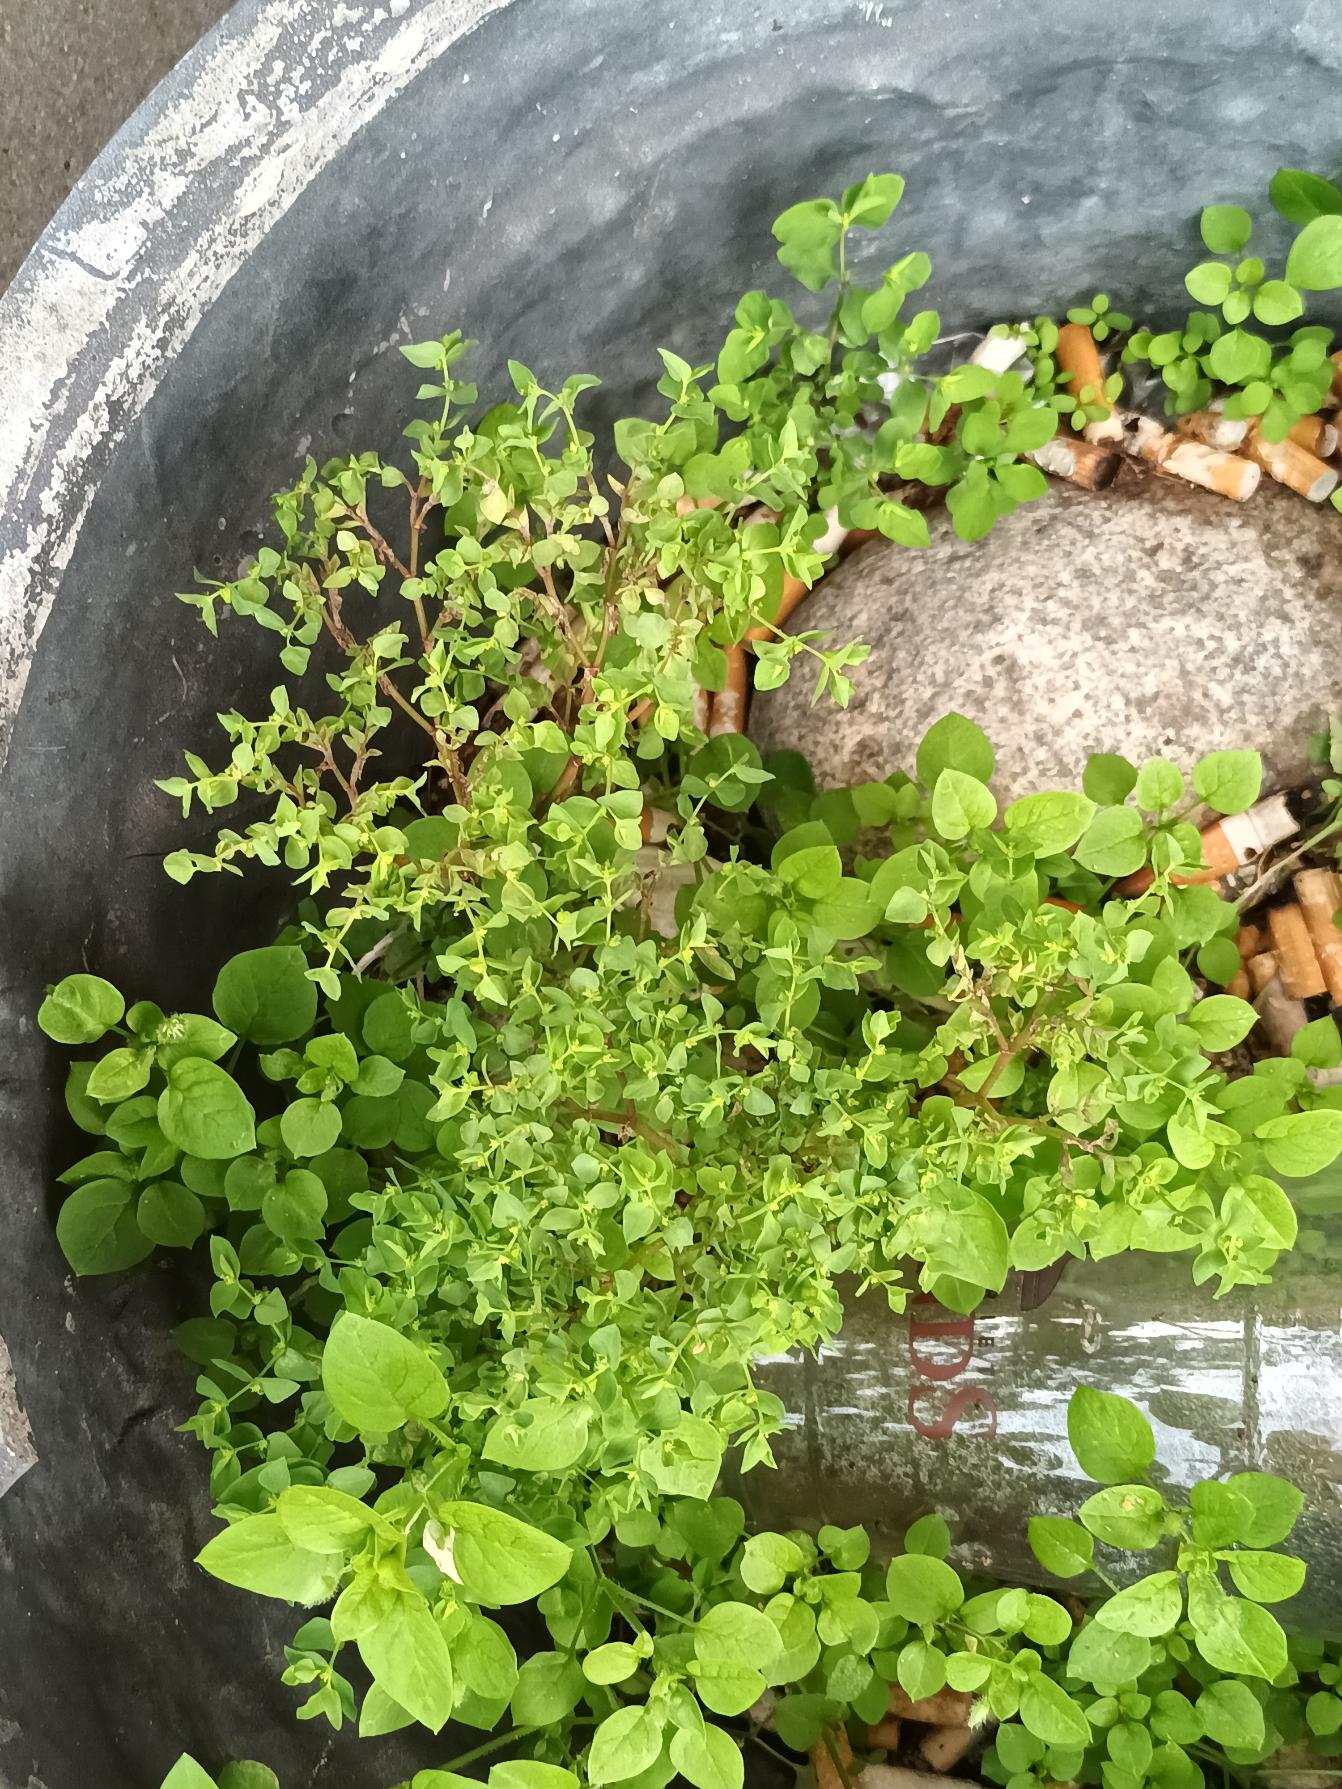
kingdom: Plantae
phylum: Tracheophyta
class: Magnoliopsida
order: Malpighiales
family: Euphorbiaceae
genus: Euphorbia
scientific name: Euphorbia peplus
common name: Gaffel-vortemælk
